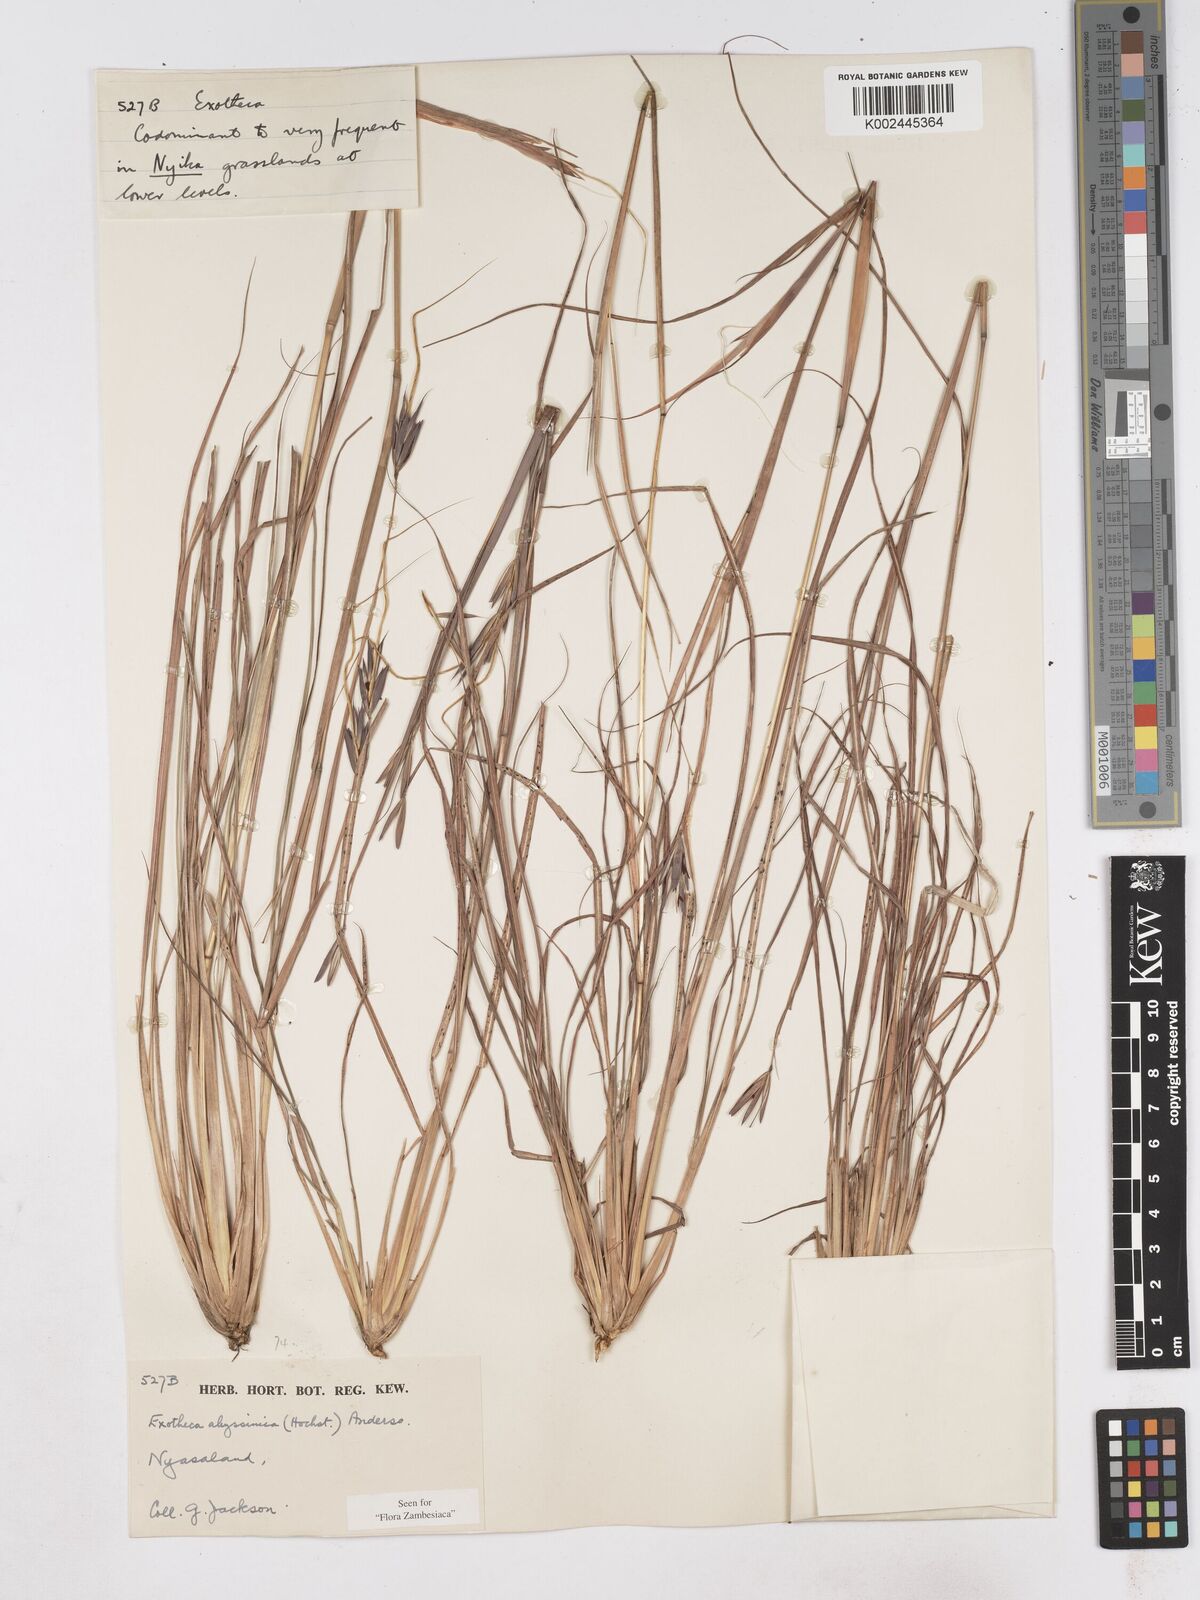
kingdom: Plantae
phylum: Tracheophyta
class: Liliopsida
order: Poales
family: Poaceae
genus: Exotheca
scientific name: Exotheca abyssinica
